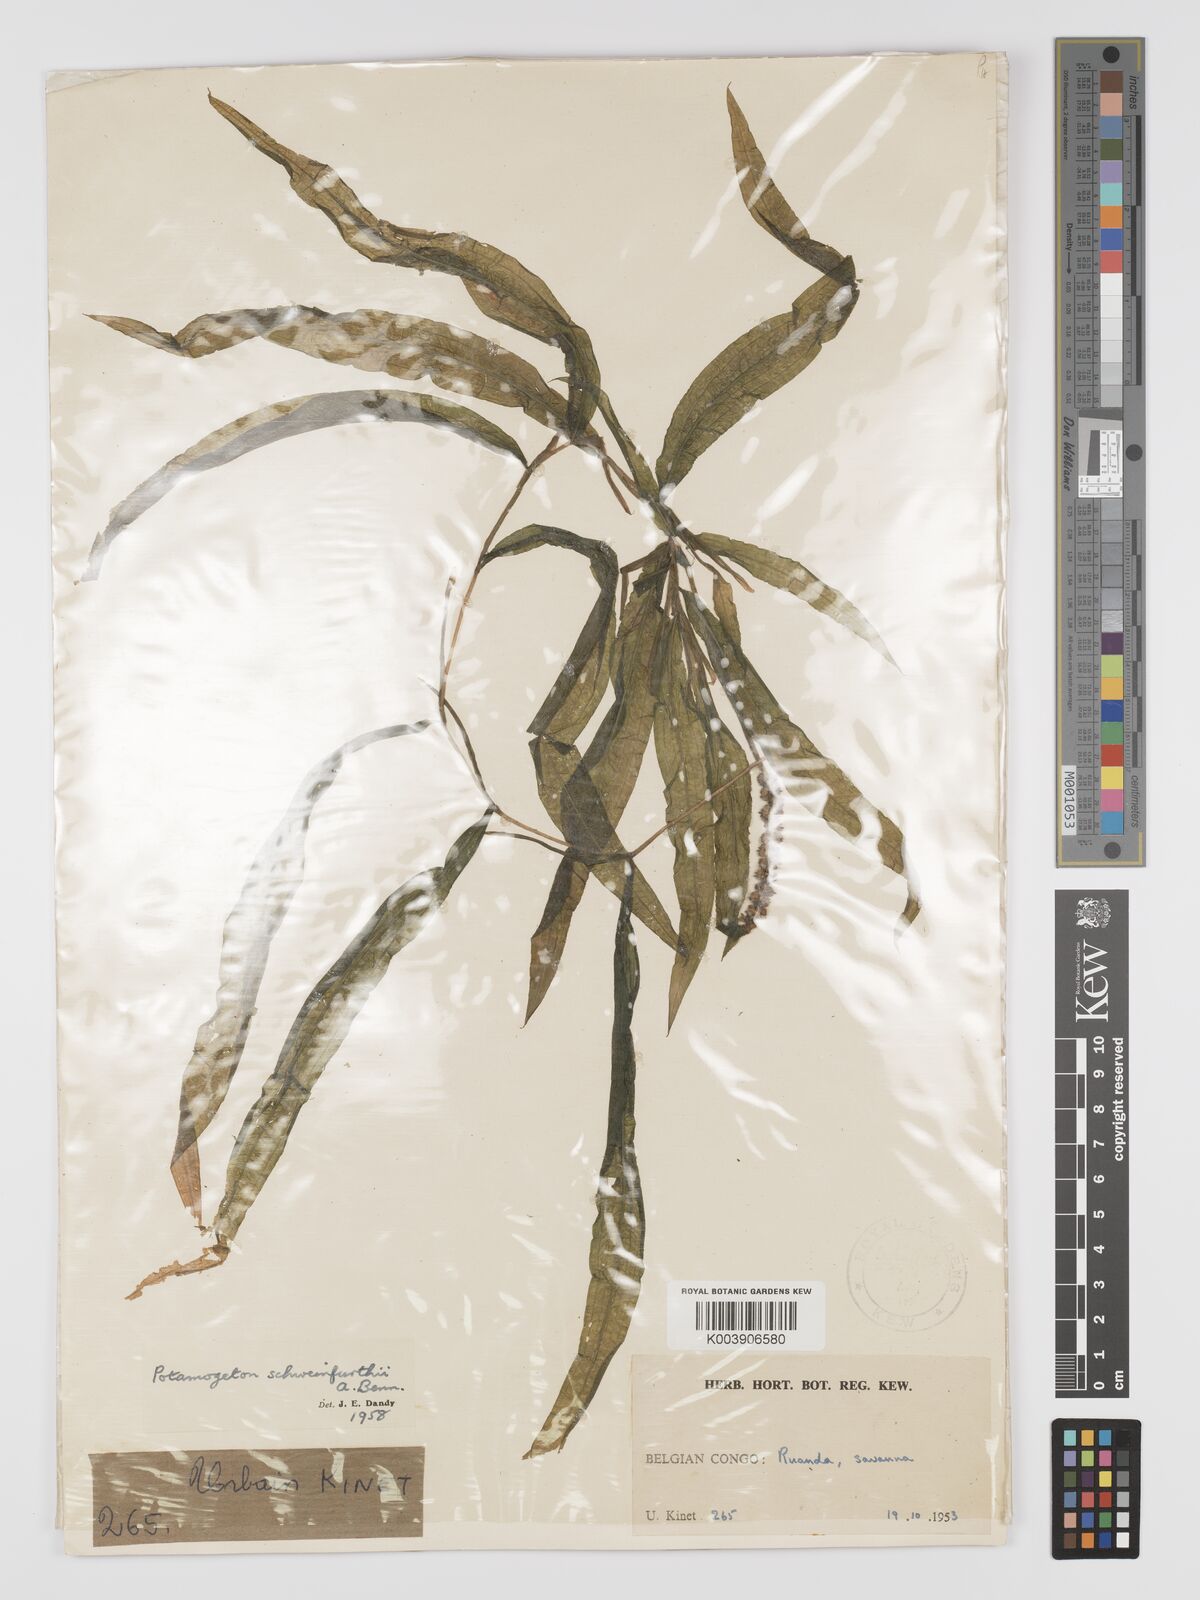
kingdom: Plantae
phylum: Tracheophyta
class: Liliopsida
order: Alismatales
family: Potamogetonaceae
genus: Potamogeton
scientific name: Potamogeton schweinfurthii
